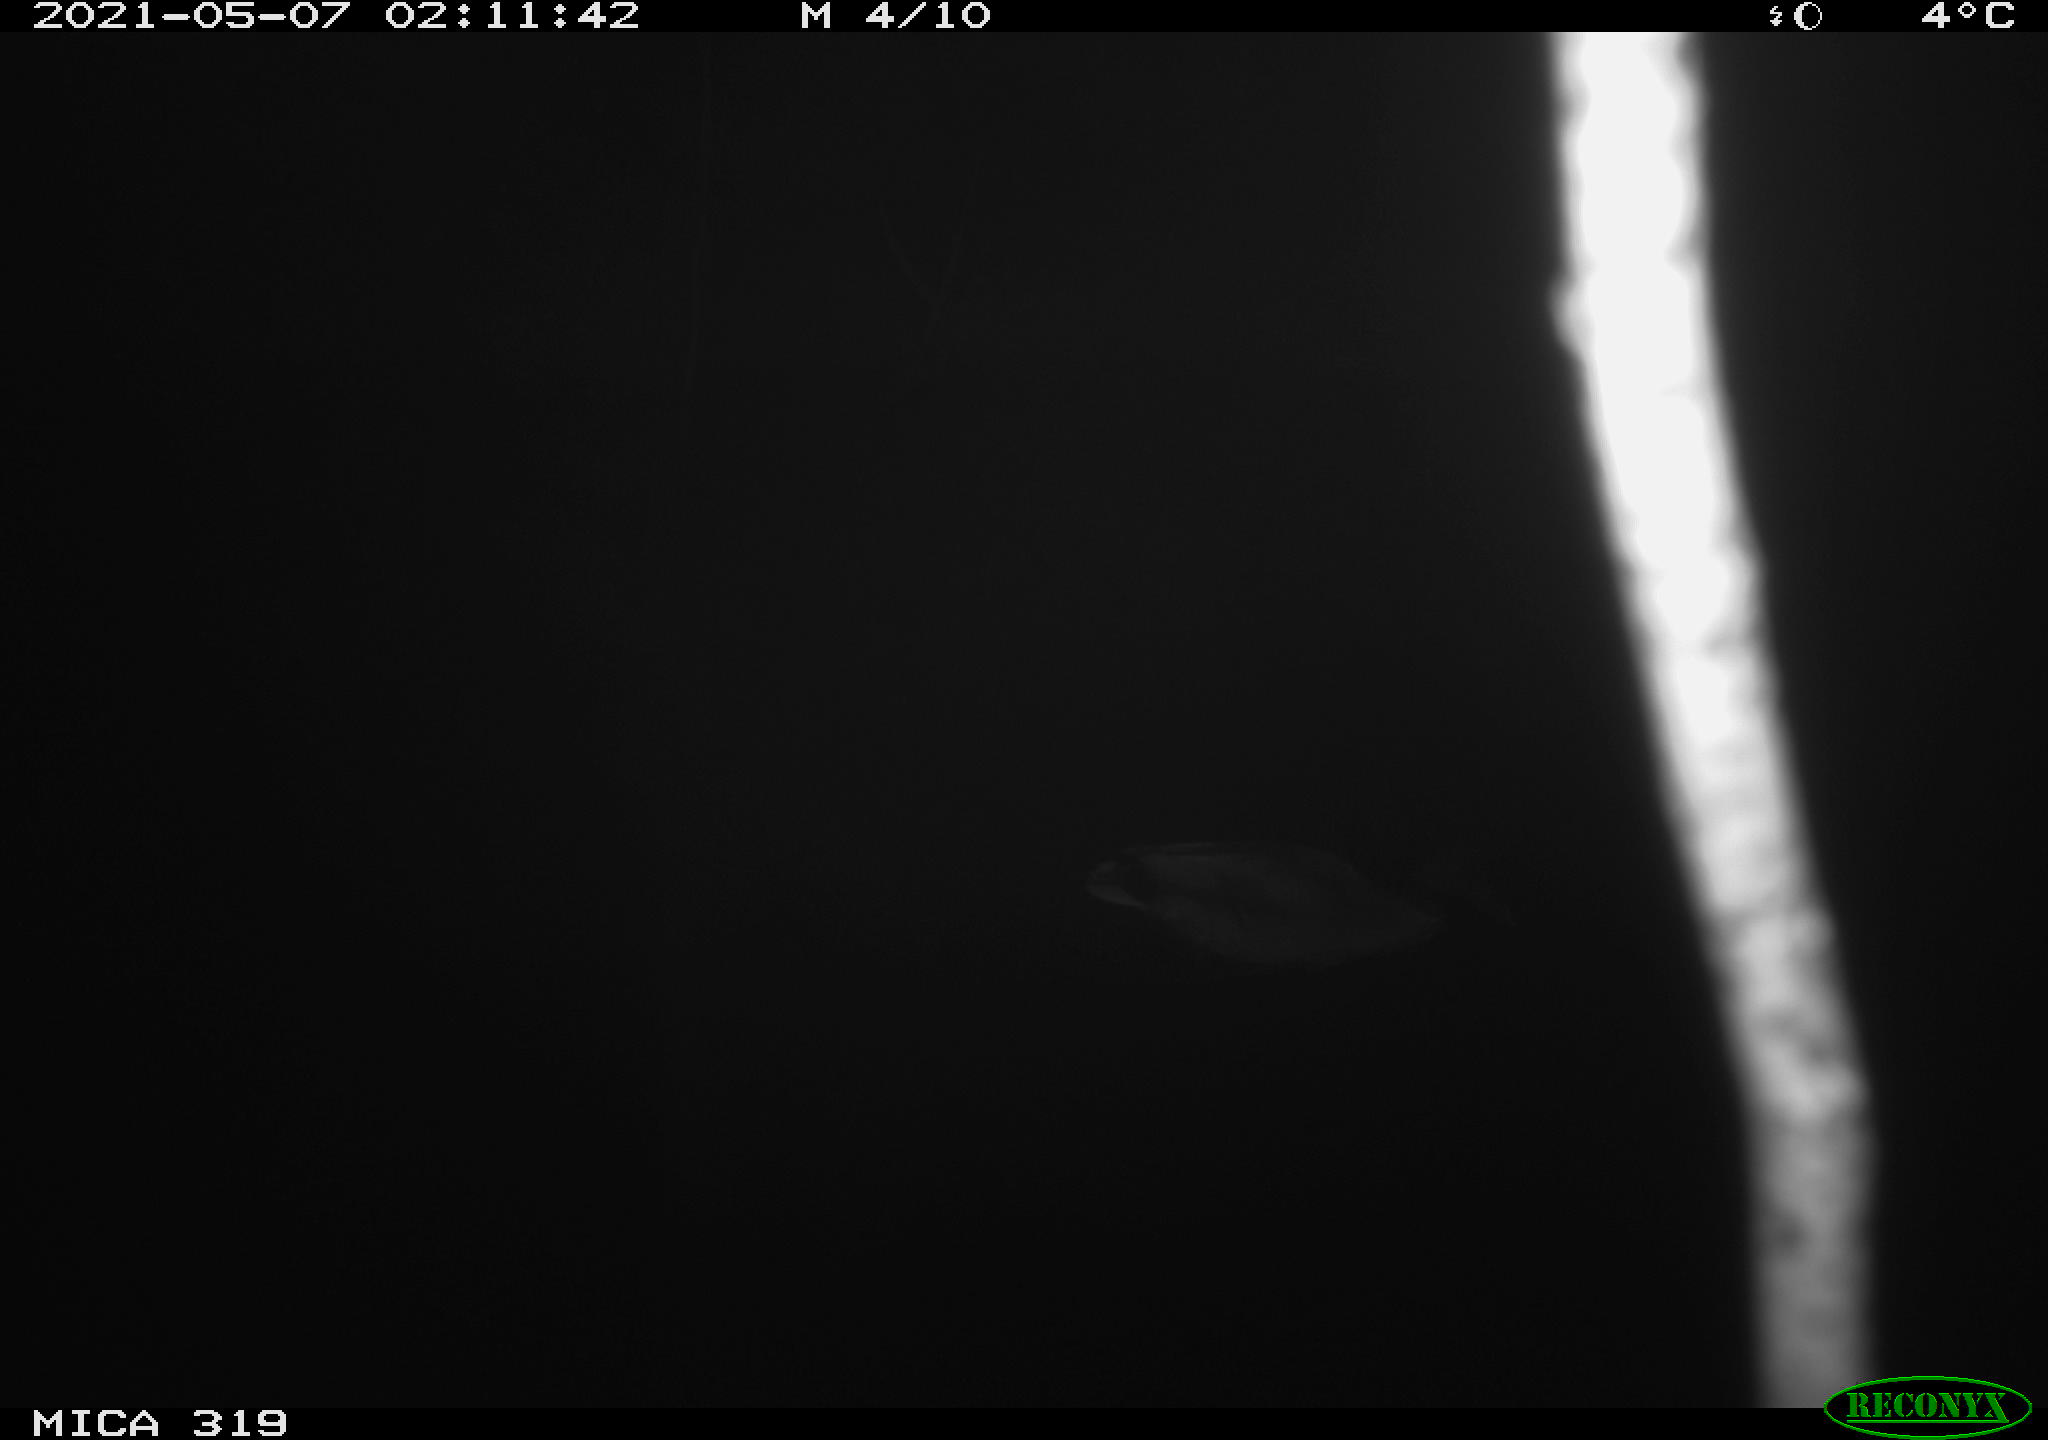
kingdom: Animalia
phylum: Chordata
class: Aves
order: Anseriformes
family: Anatidae
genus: Anas
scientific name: Anas platyrhynchos
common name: Mallard
